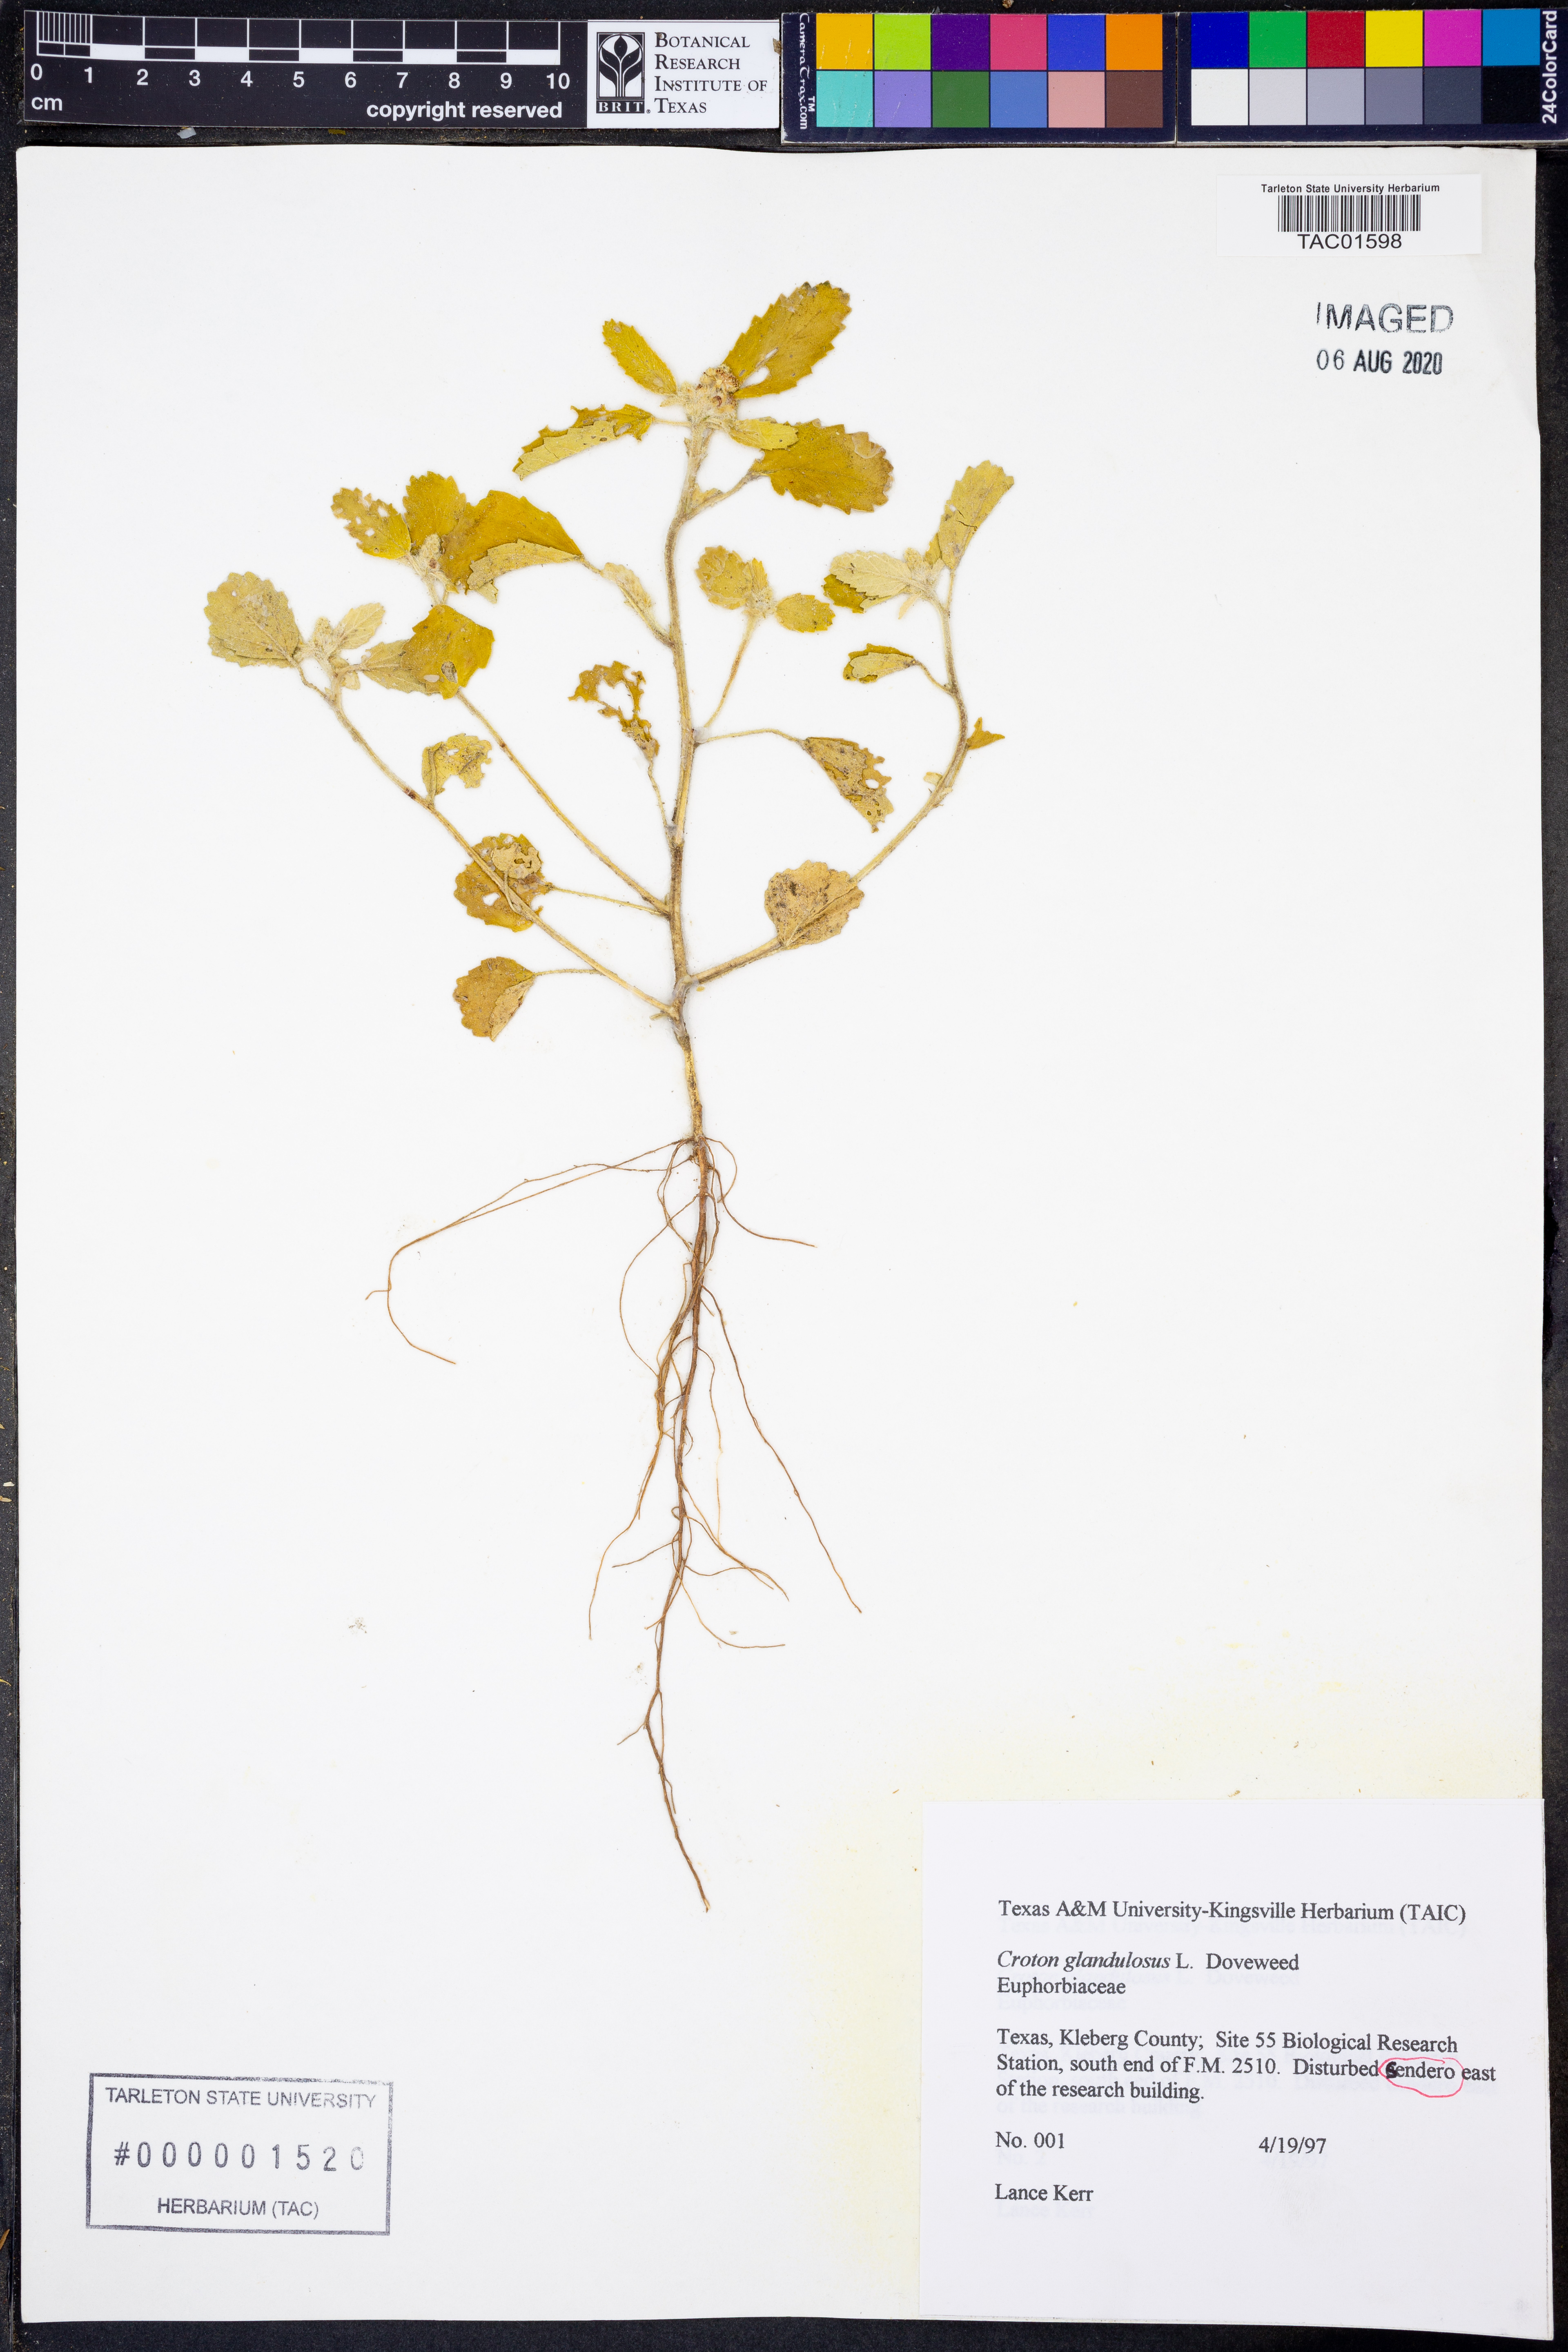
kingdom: Plantae
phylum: Tracheophyta
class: Magnoliopsida
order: Malpighiales
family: Euphorbiaceae
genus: Croton
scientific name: Croton glandulosus
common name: Tropic croton
